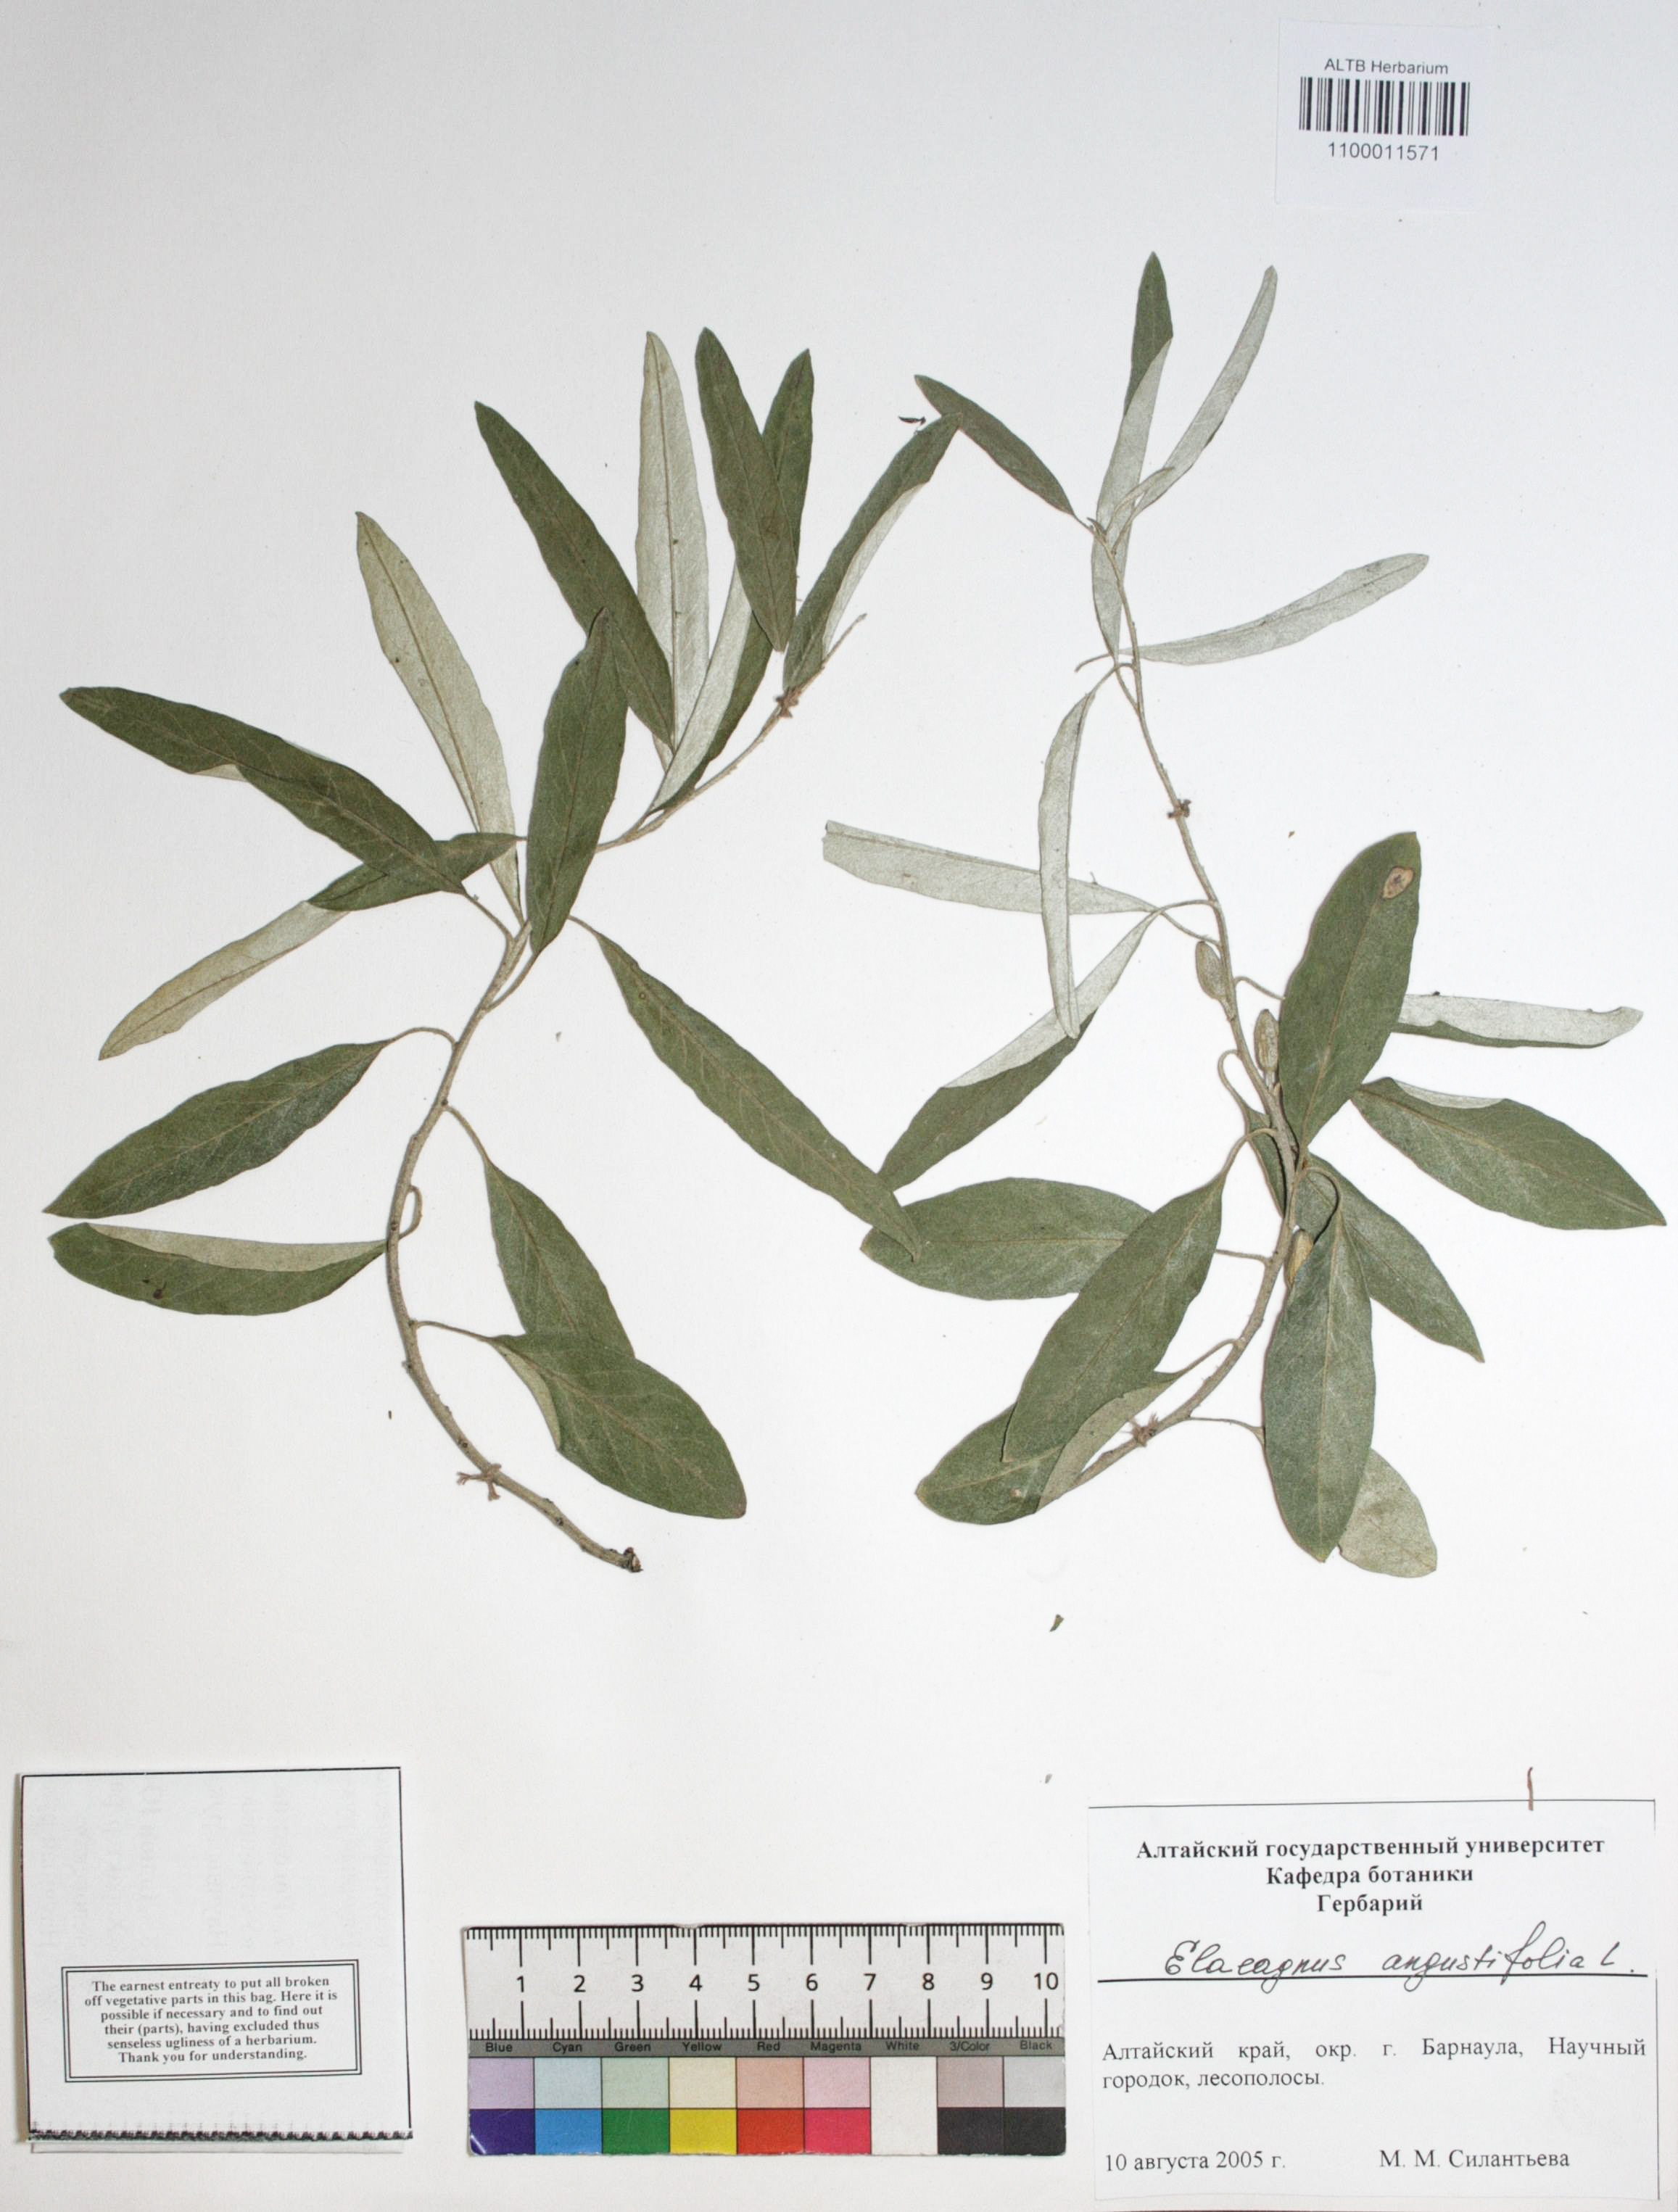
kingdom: Plantae
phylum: Tracheophyta
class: Magnoliopsida
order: Rosales
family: Elaeagnaceae
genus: Elaeagnus
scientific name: Elaeagnus angustifolia
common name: Russian olive
